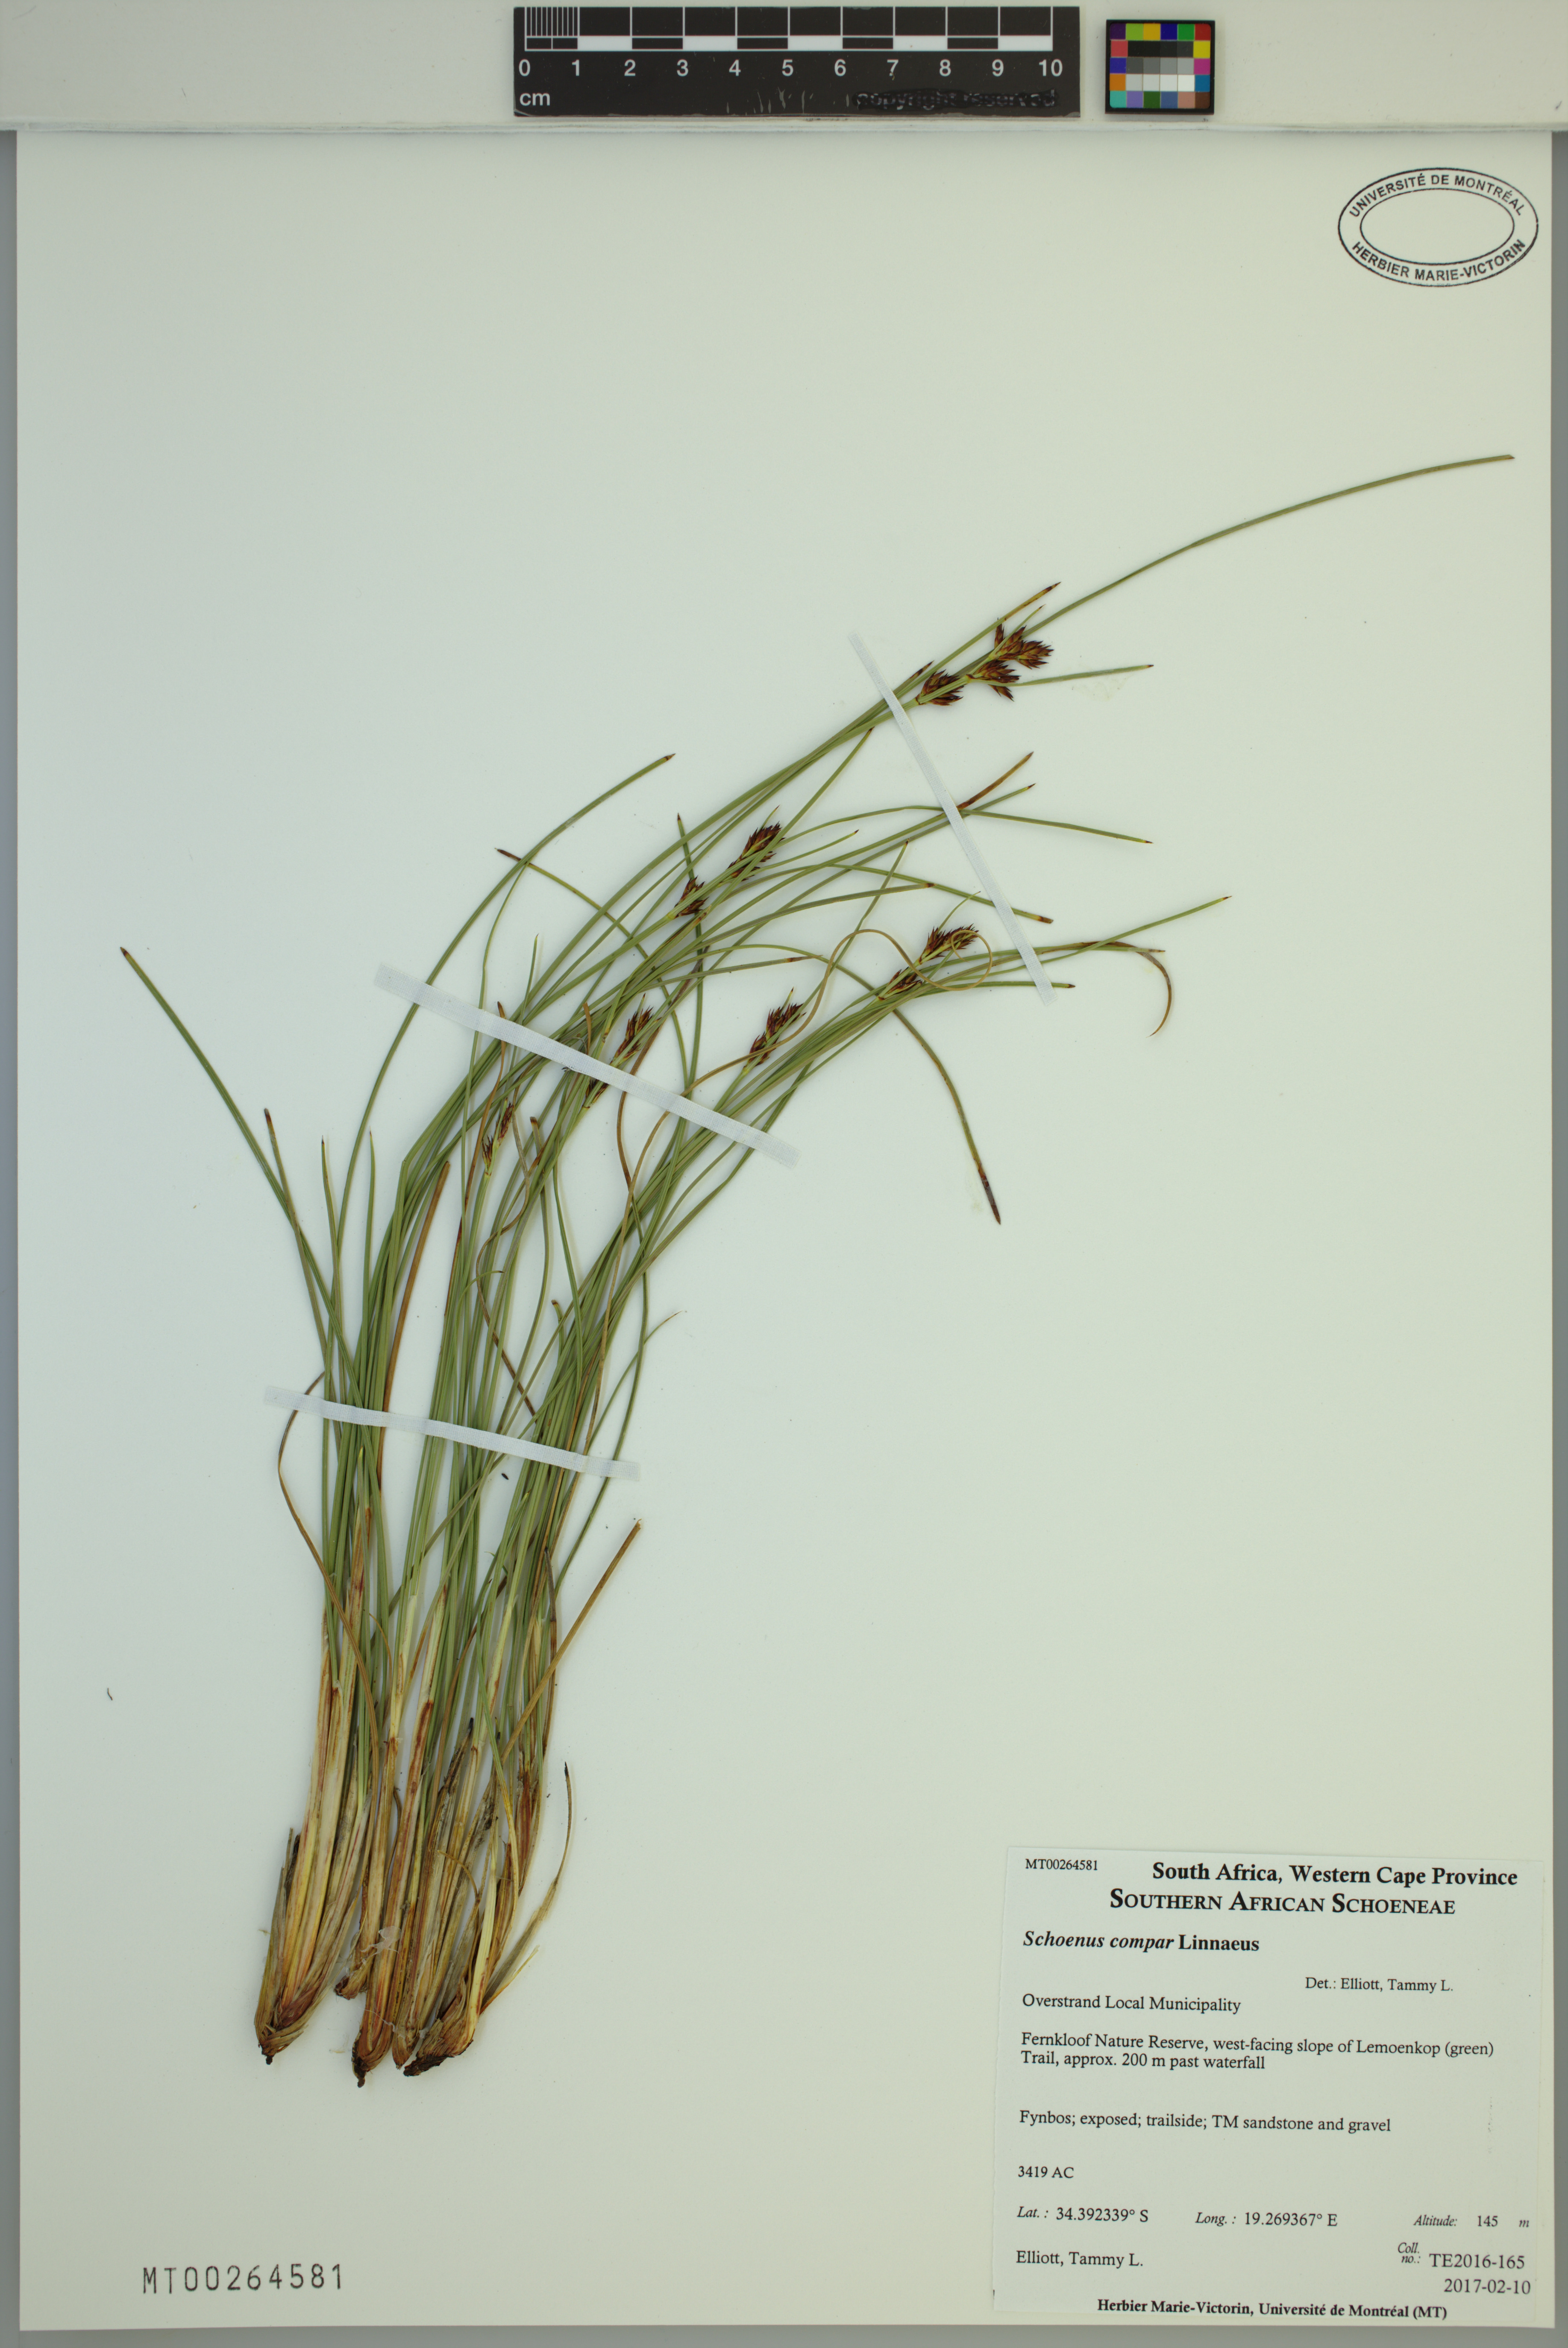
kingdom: Plantae
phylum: Tracheophyta
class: Liliopsida
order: Poales
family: Cyperaceae
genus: Schoenus
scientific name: Schoenus compar
